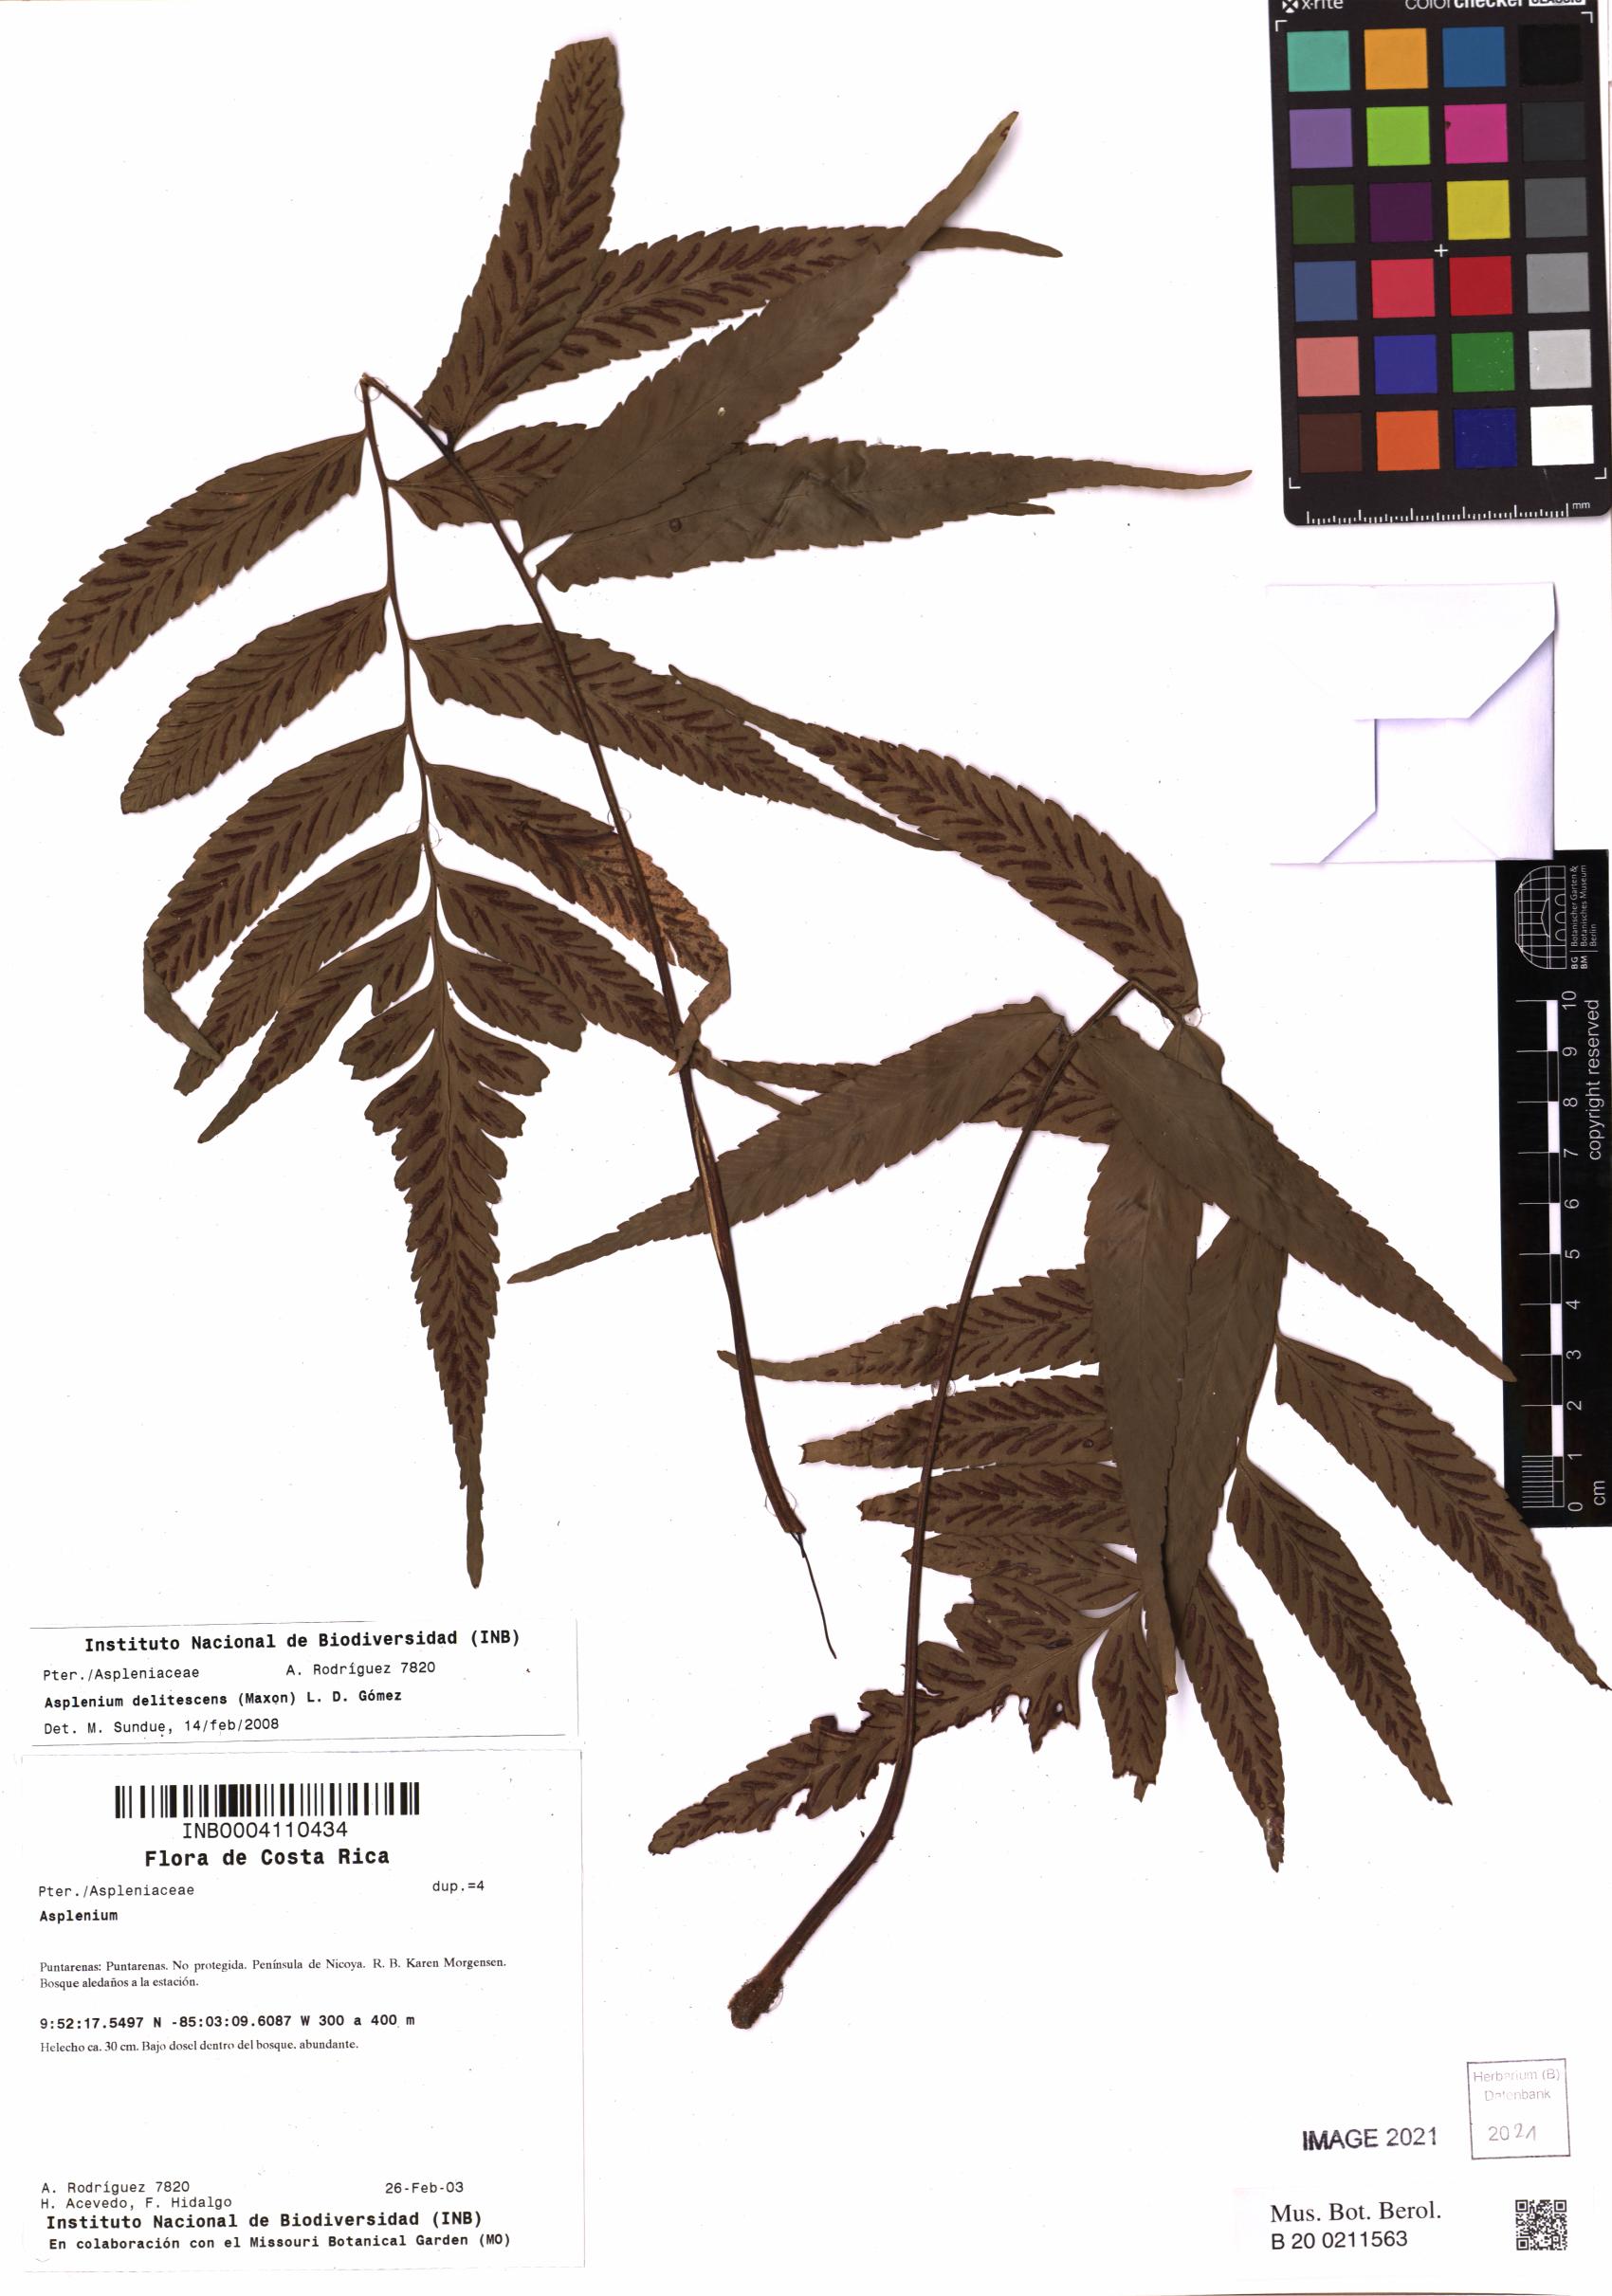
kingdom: Plantae
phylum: Tracheophyta
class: Polypodiopsida
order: Polypodiales
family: Aspleniaceae
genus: Hymenasplenium
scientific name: Hymenasplenium delitescens
